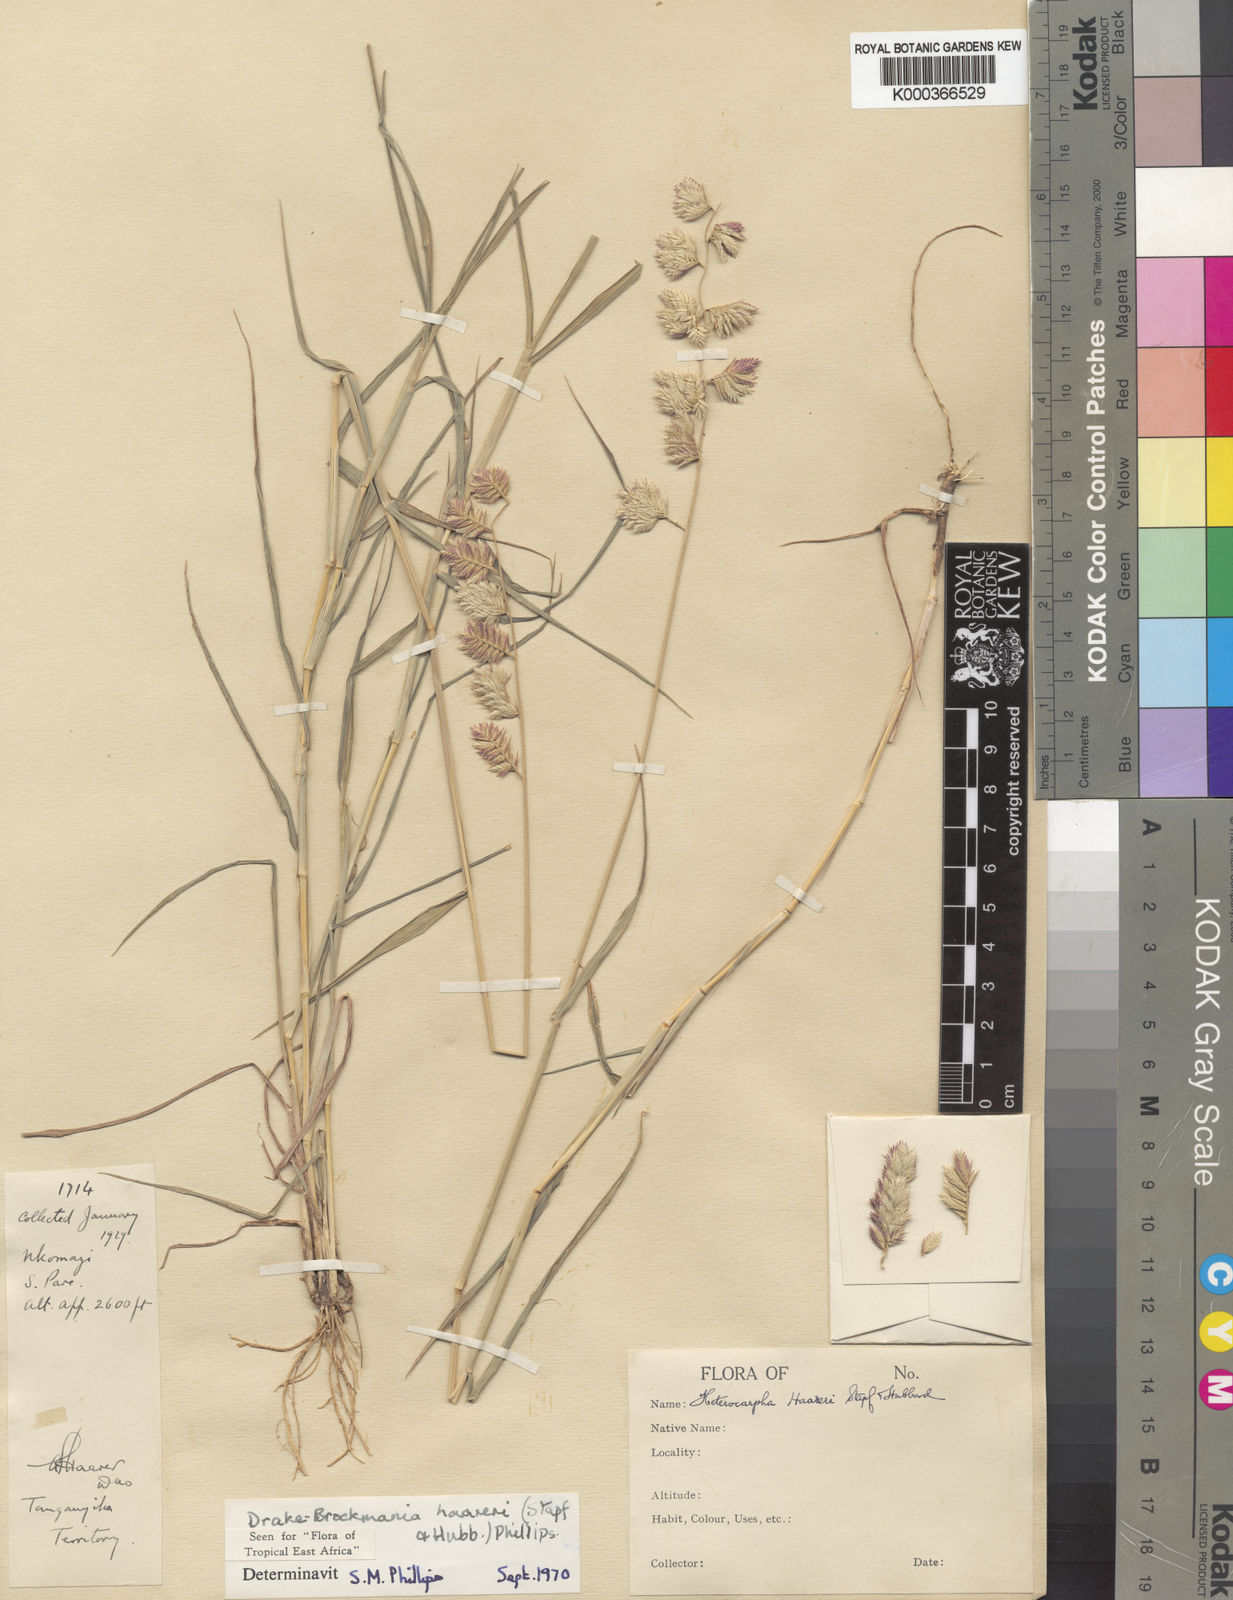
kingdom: Plantae
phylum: Tracheophyta
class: Liliopsida
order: Poales
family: Poaceae
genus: Dinebra
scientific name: Dinebra haareri
